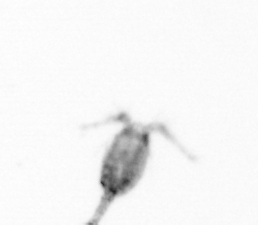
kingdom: Animalia
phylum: Arthropoda
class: Copepoda
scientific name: Copepoda
